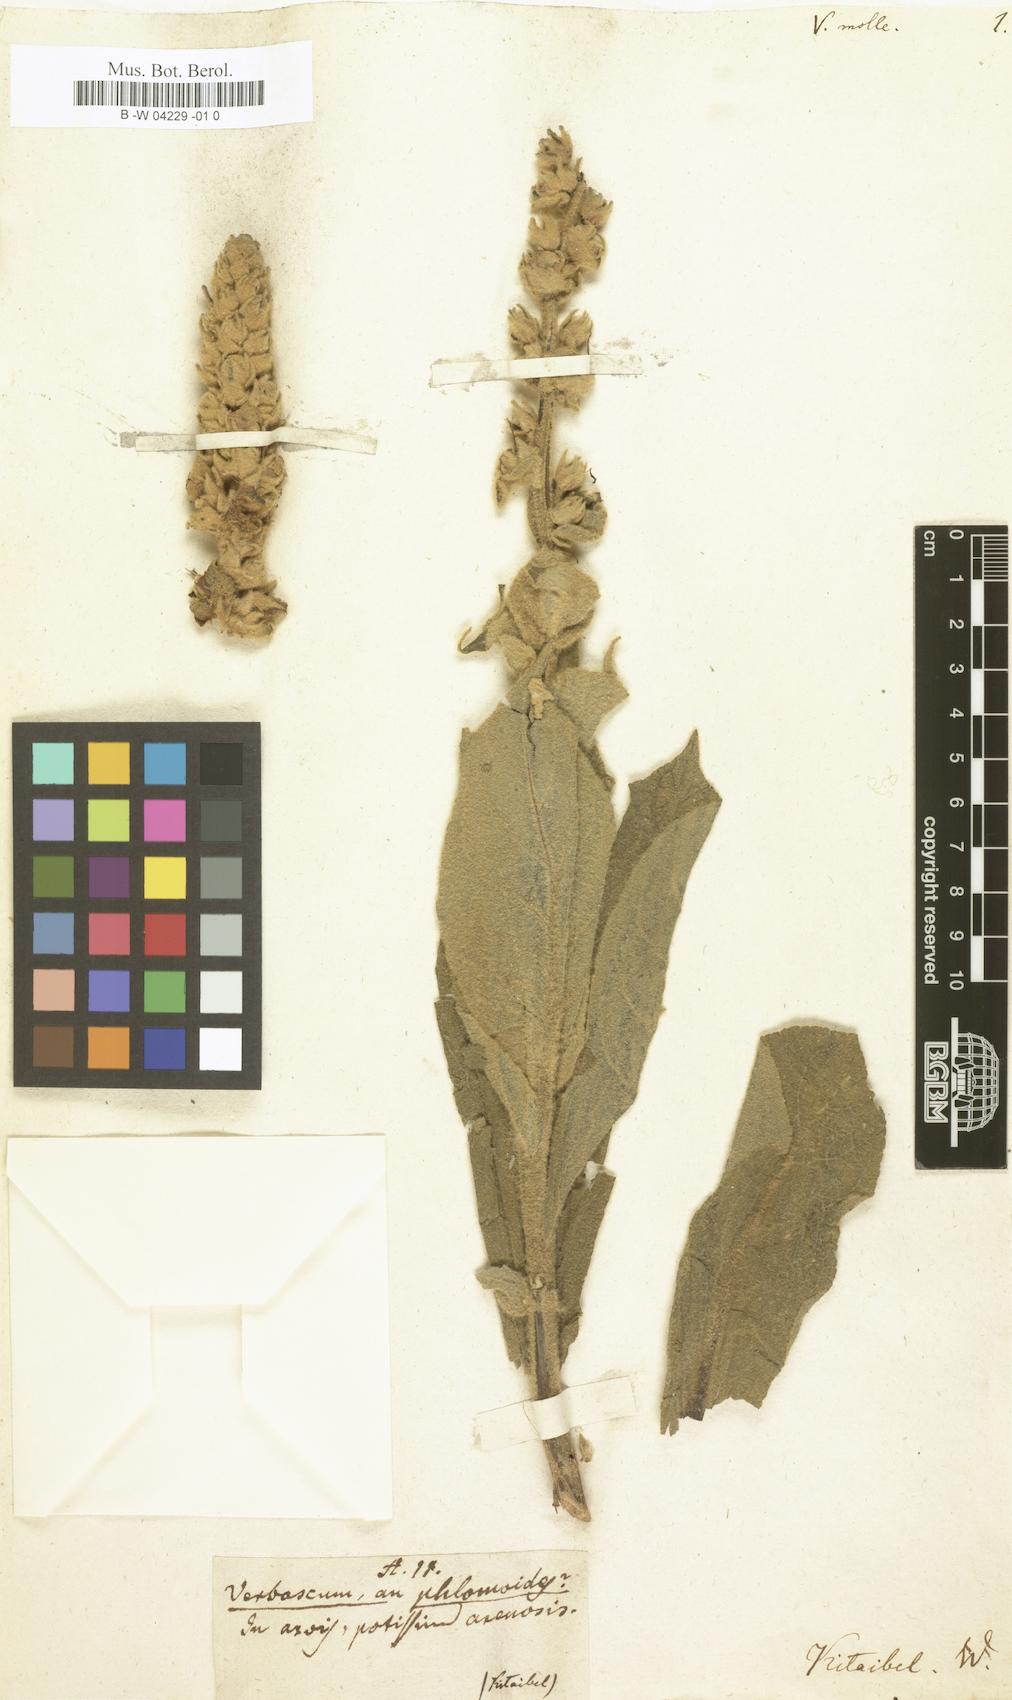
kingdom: Plantae
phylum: Tracheophyta
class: Magnoliopsida
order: Lamiales
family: Scrophulariaceae
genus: Verbascum
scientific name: Verbascum saccatum
